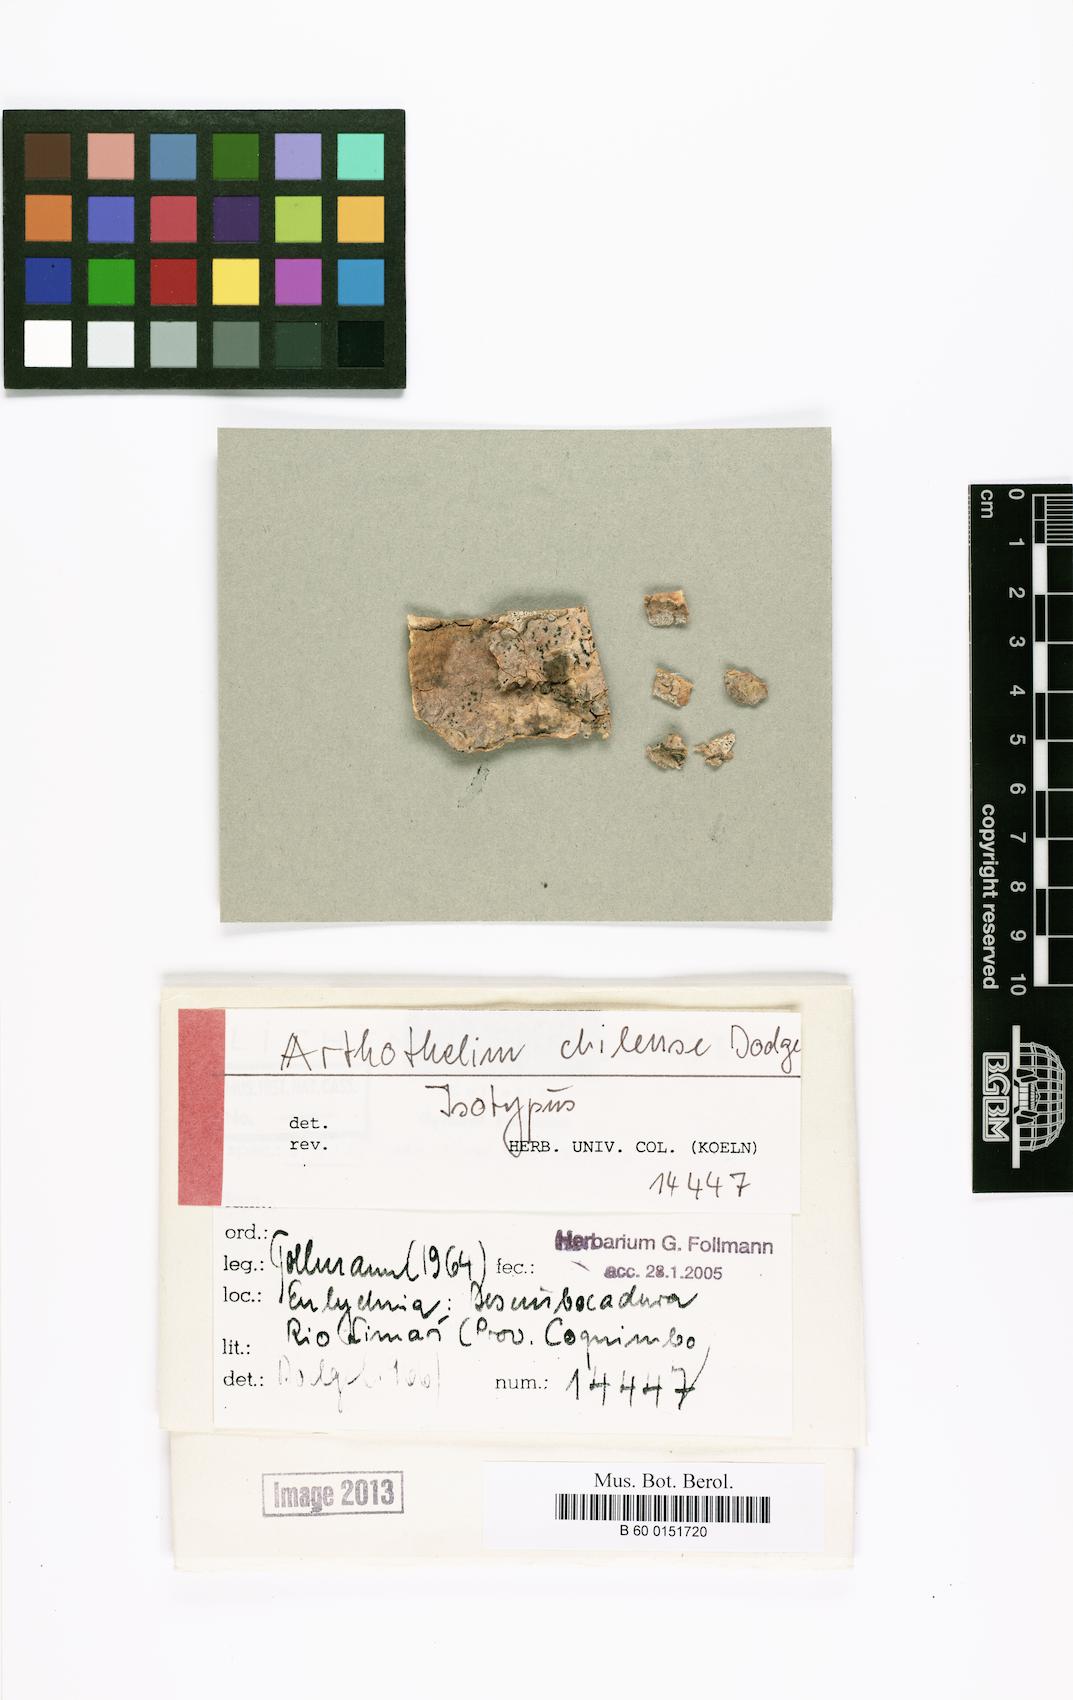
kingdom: Fungi
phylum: Ascomycota
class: Arthoniomycetes
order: Arthoniales
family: Arthoniaceae
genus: Arthothelium
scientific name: Arthothelium
